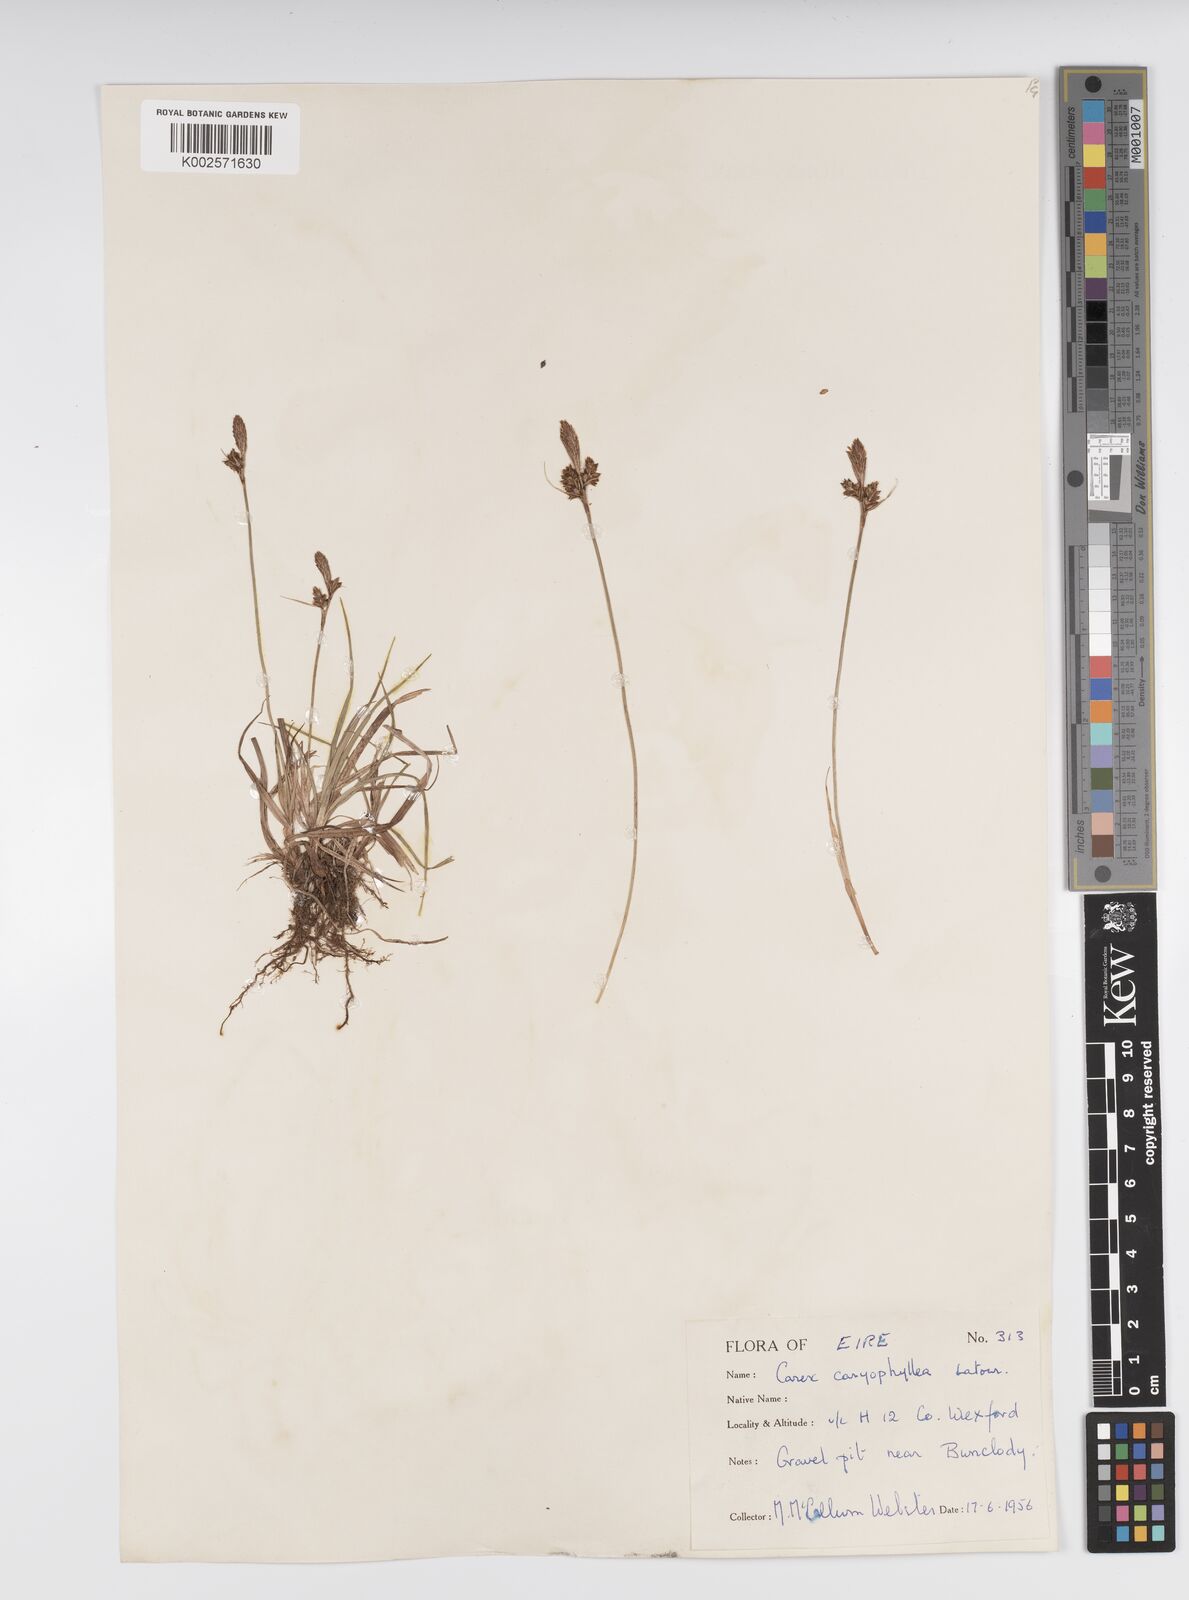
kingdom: Plantae
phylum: Tracheophyta
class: Liliopsida
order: Poales
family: Cyperaceae
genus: Carex
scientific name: Carex caryophyllea
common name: Spring sedge
